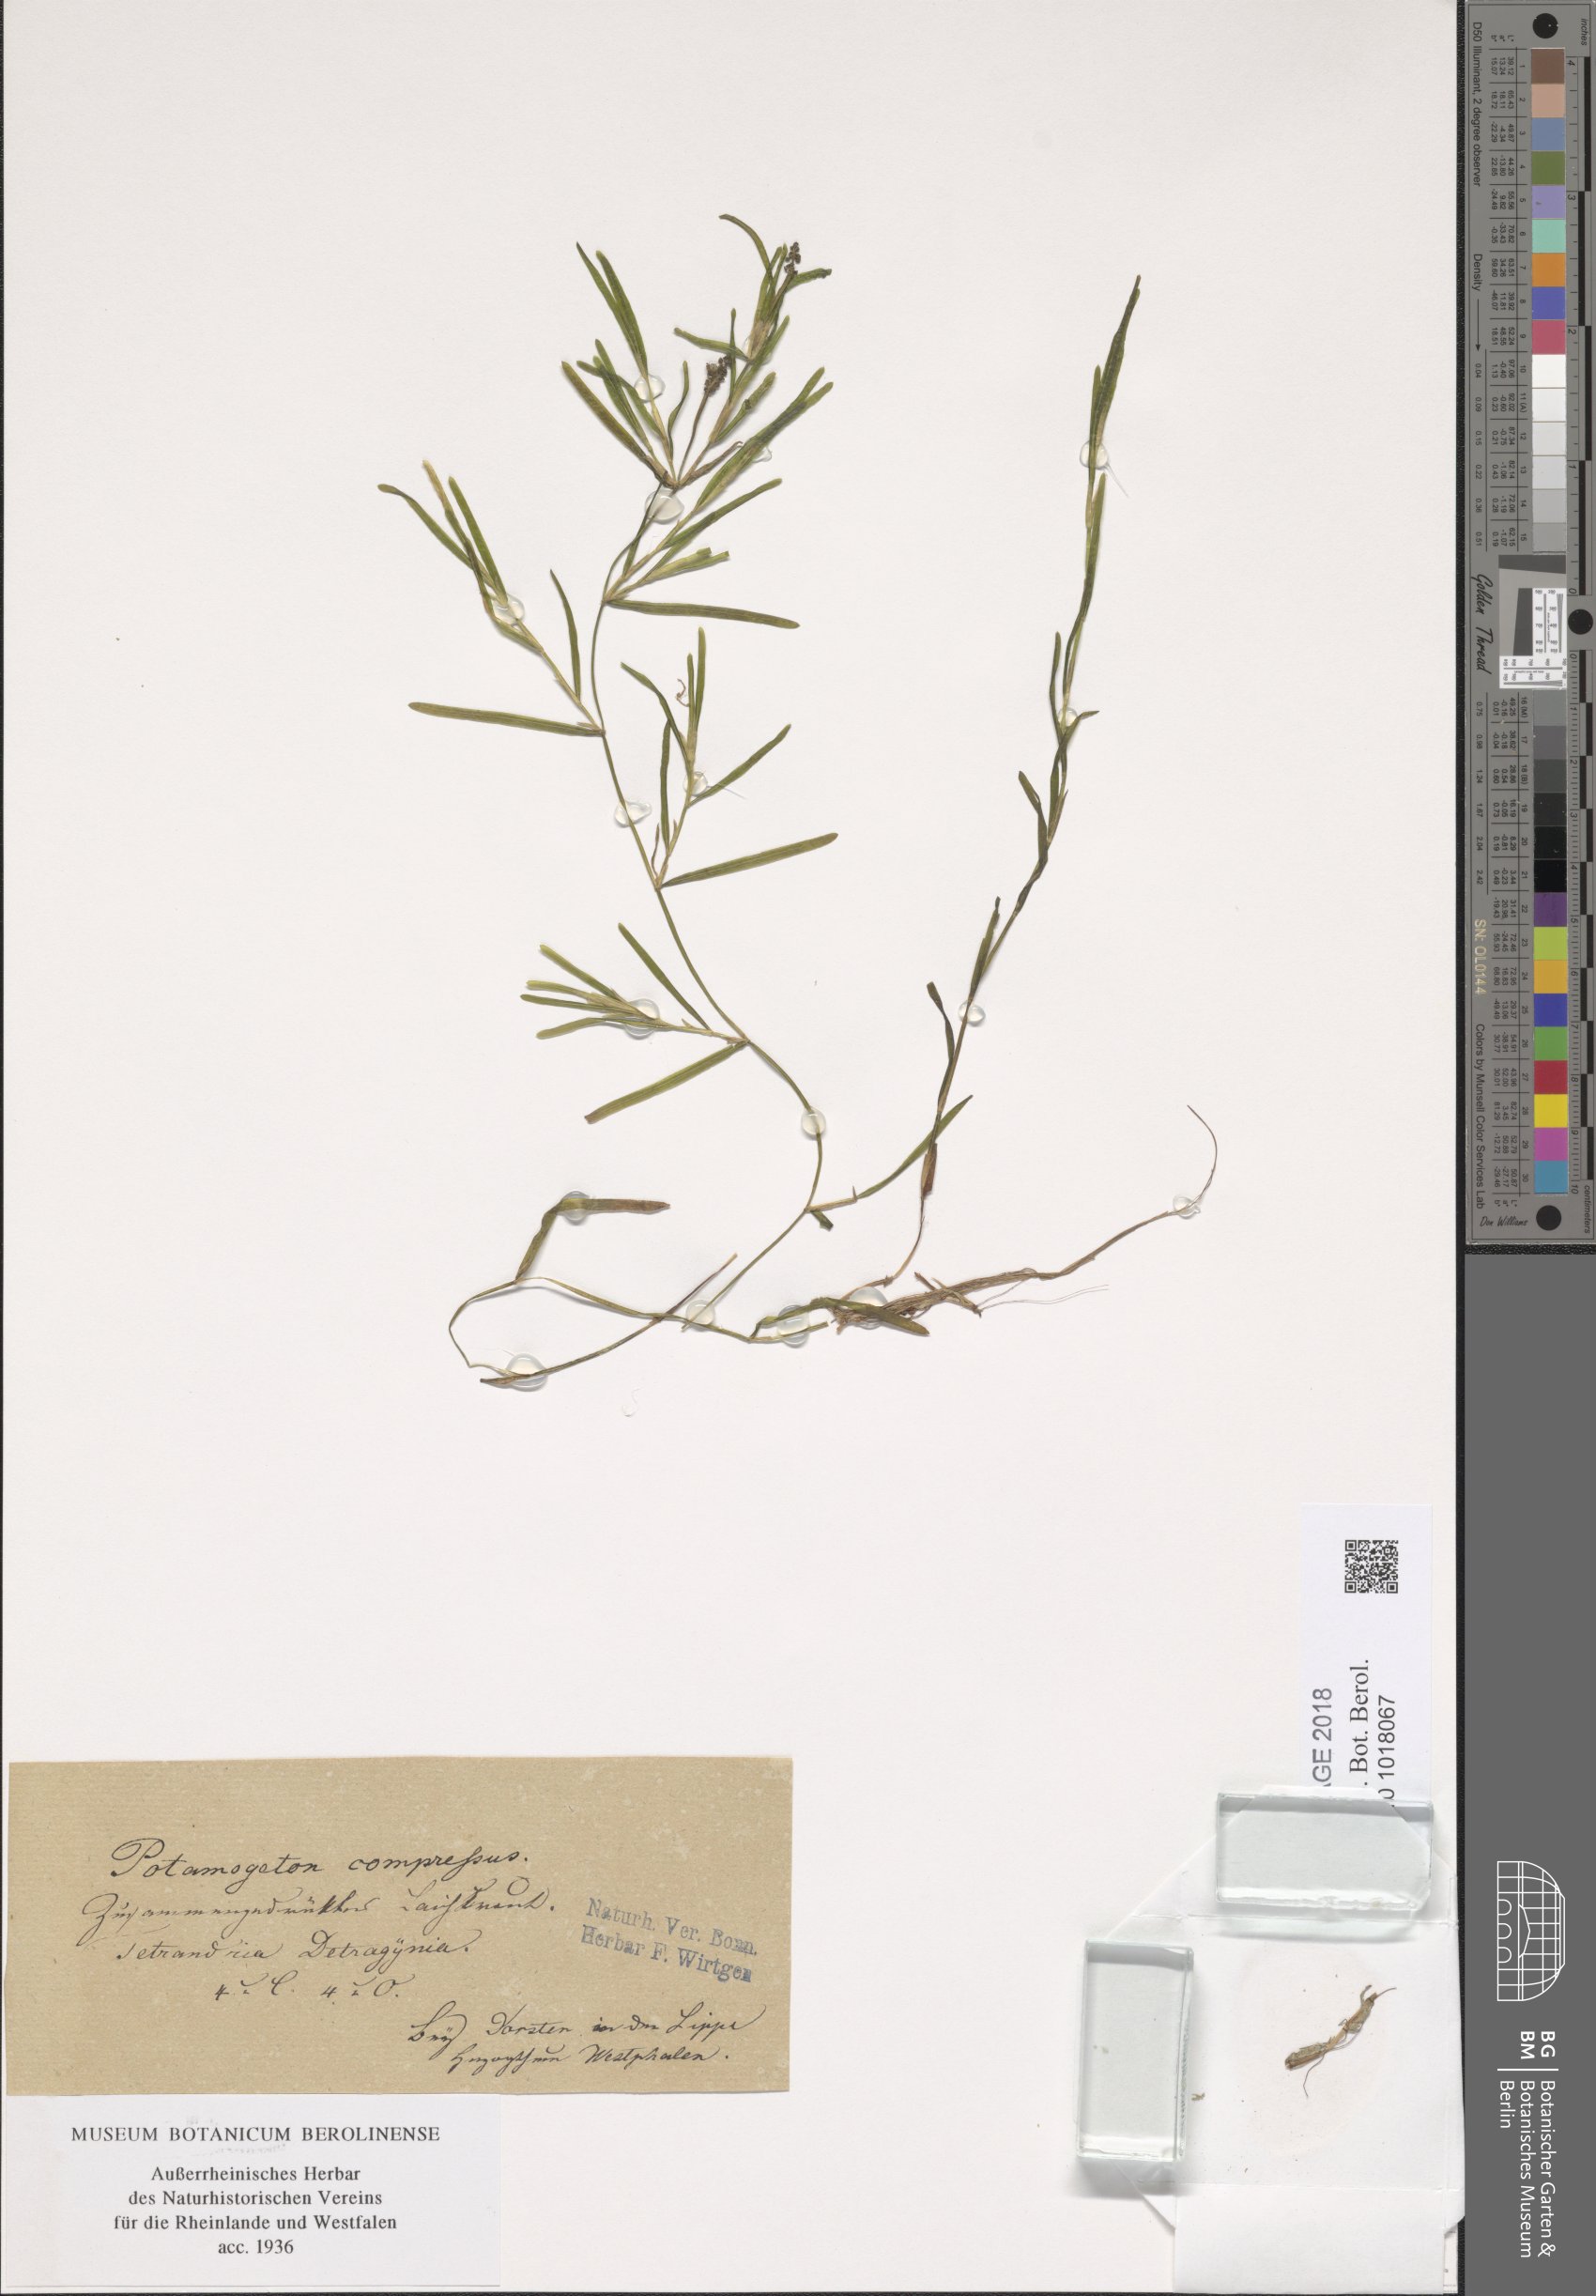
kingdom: Plantae
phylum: Tracheophyta
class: Liliopsida
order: Alismatales
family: Potamogetonaceae
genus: Potamogeton
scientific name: Potamogeton friesii
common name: Flat-stalked pondweed
